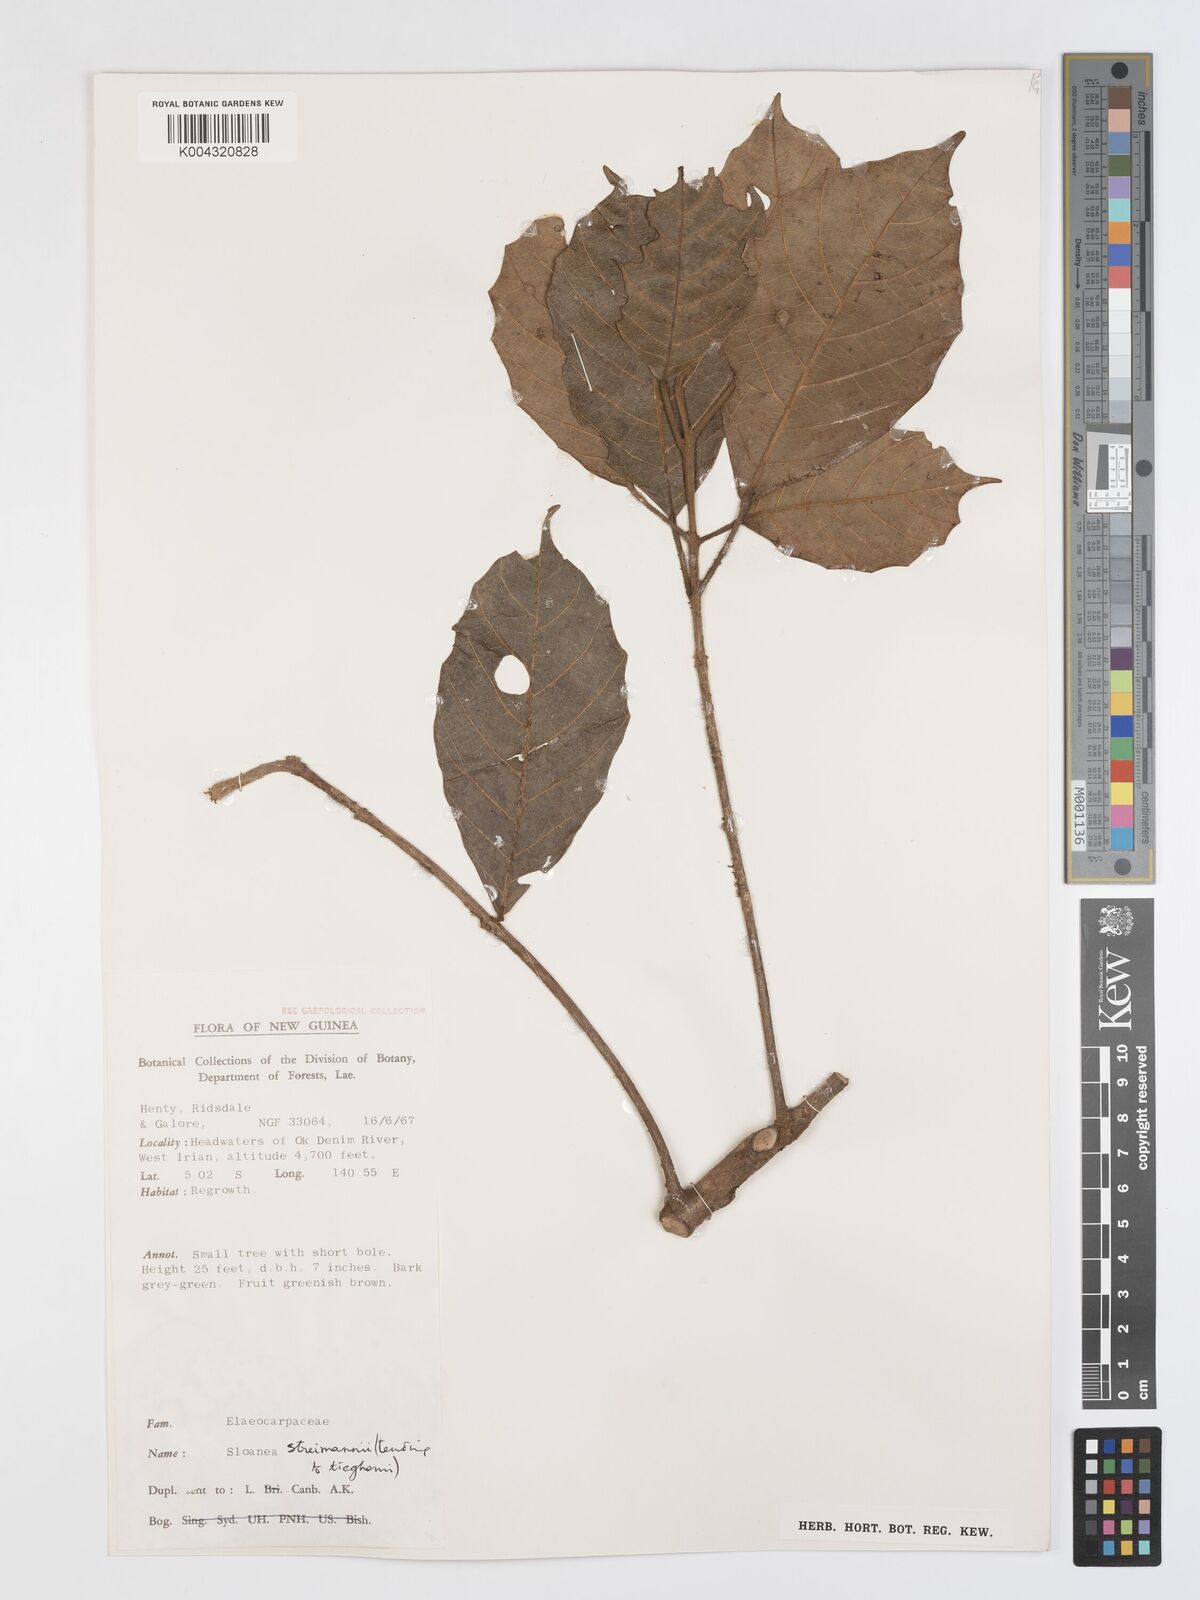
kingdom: Plantae
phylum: Tracheophyta
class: Magnoliopsida
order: Oxalidales
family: Elaeocarpaceae
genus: Sloanea
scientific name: Sloanea streimannii
